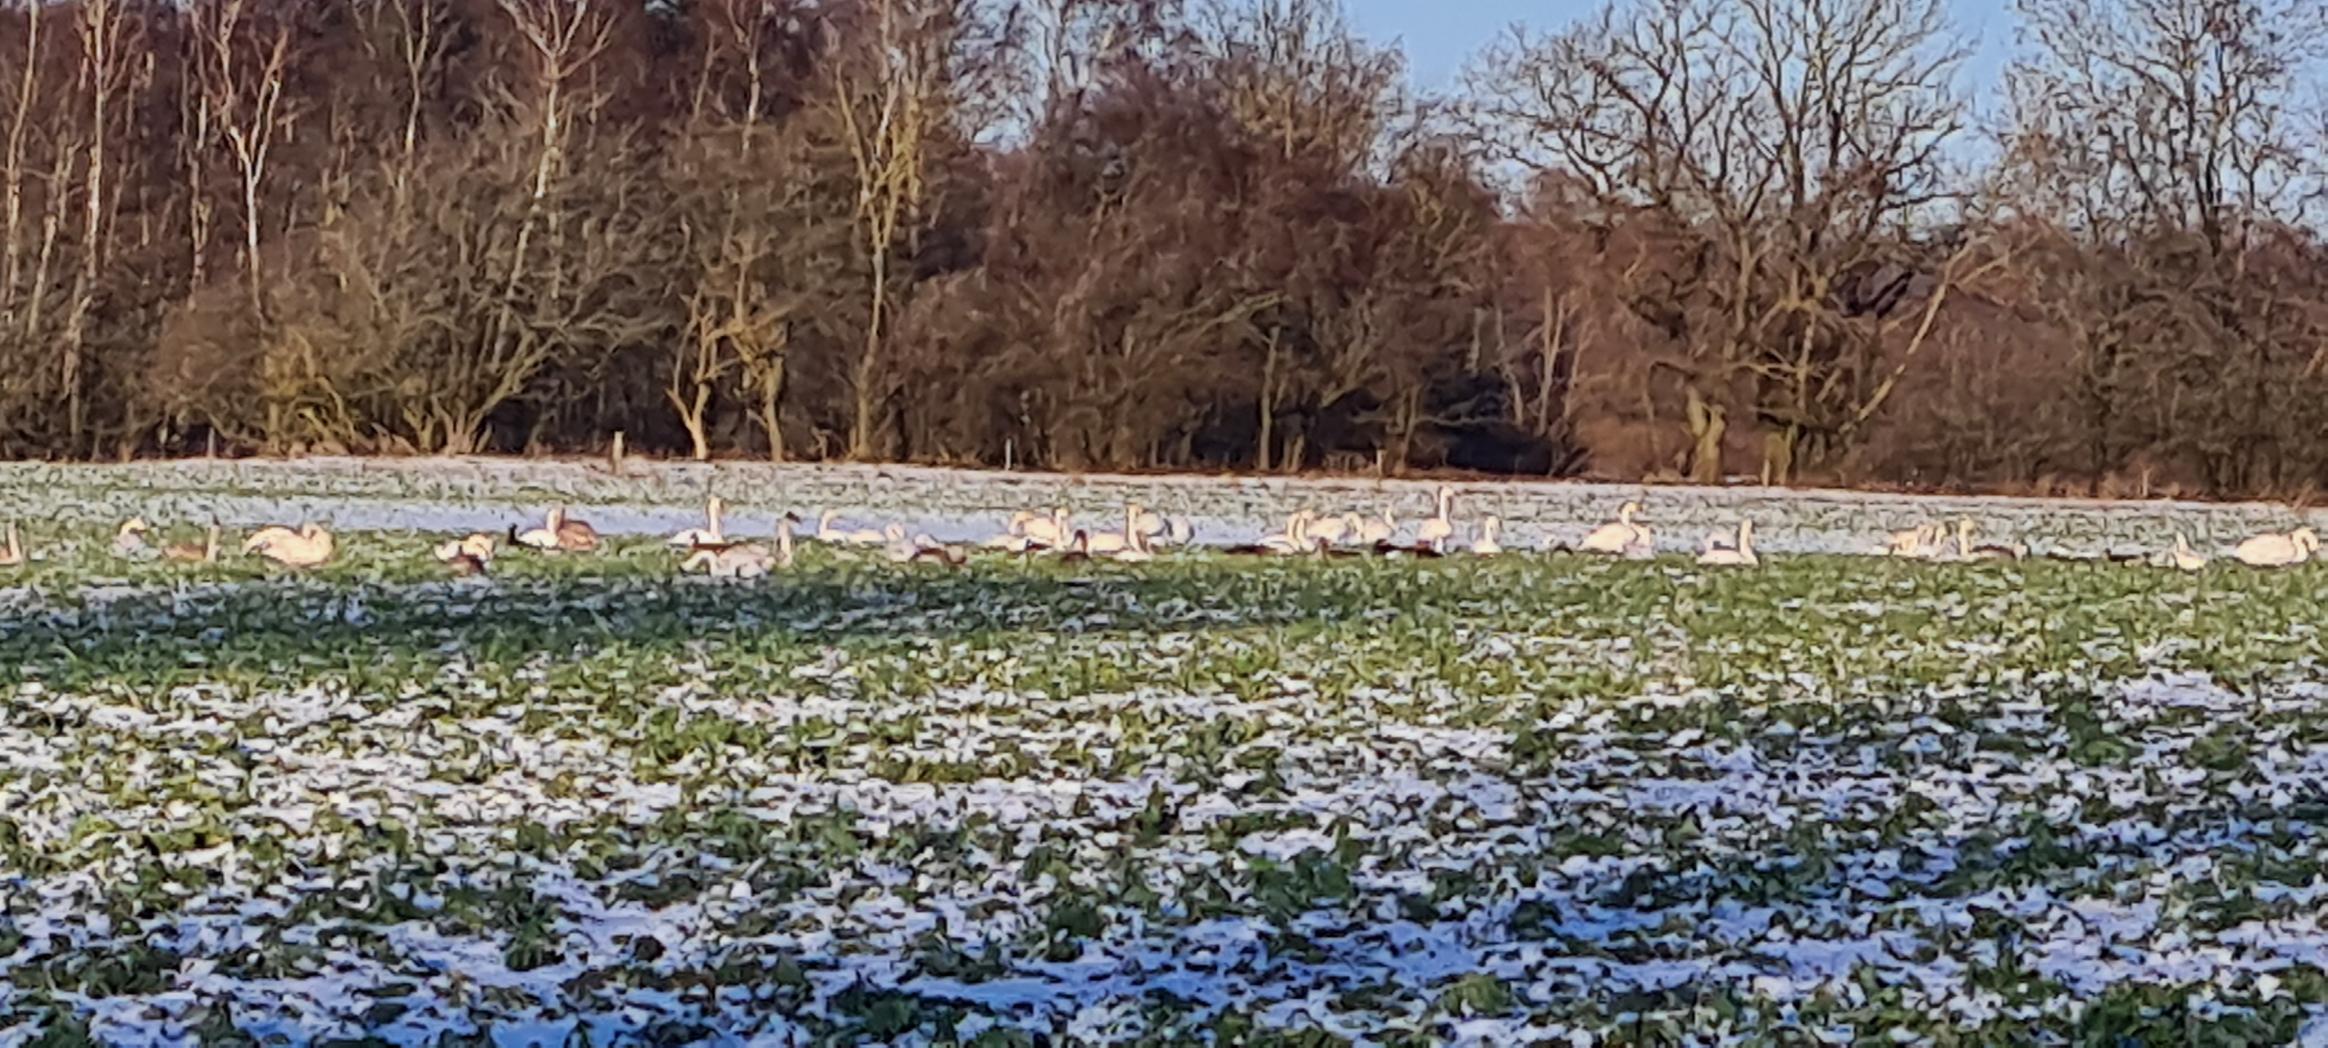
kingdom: Animalia
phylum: Chordata
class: Aves
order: Anseriformes
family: Anatidae
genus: Cygnus
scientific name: Cygnus cygnus
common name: Sangsvane
